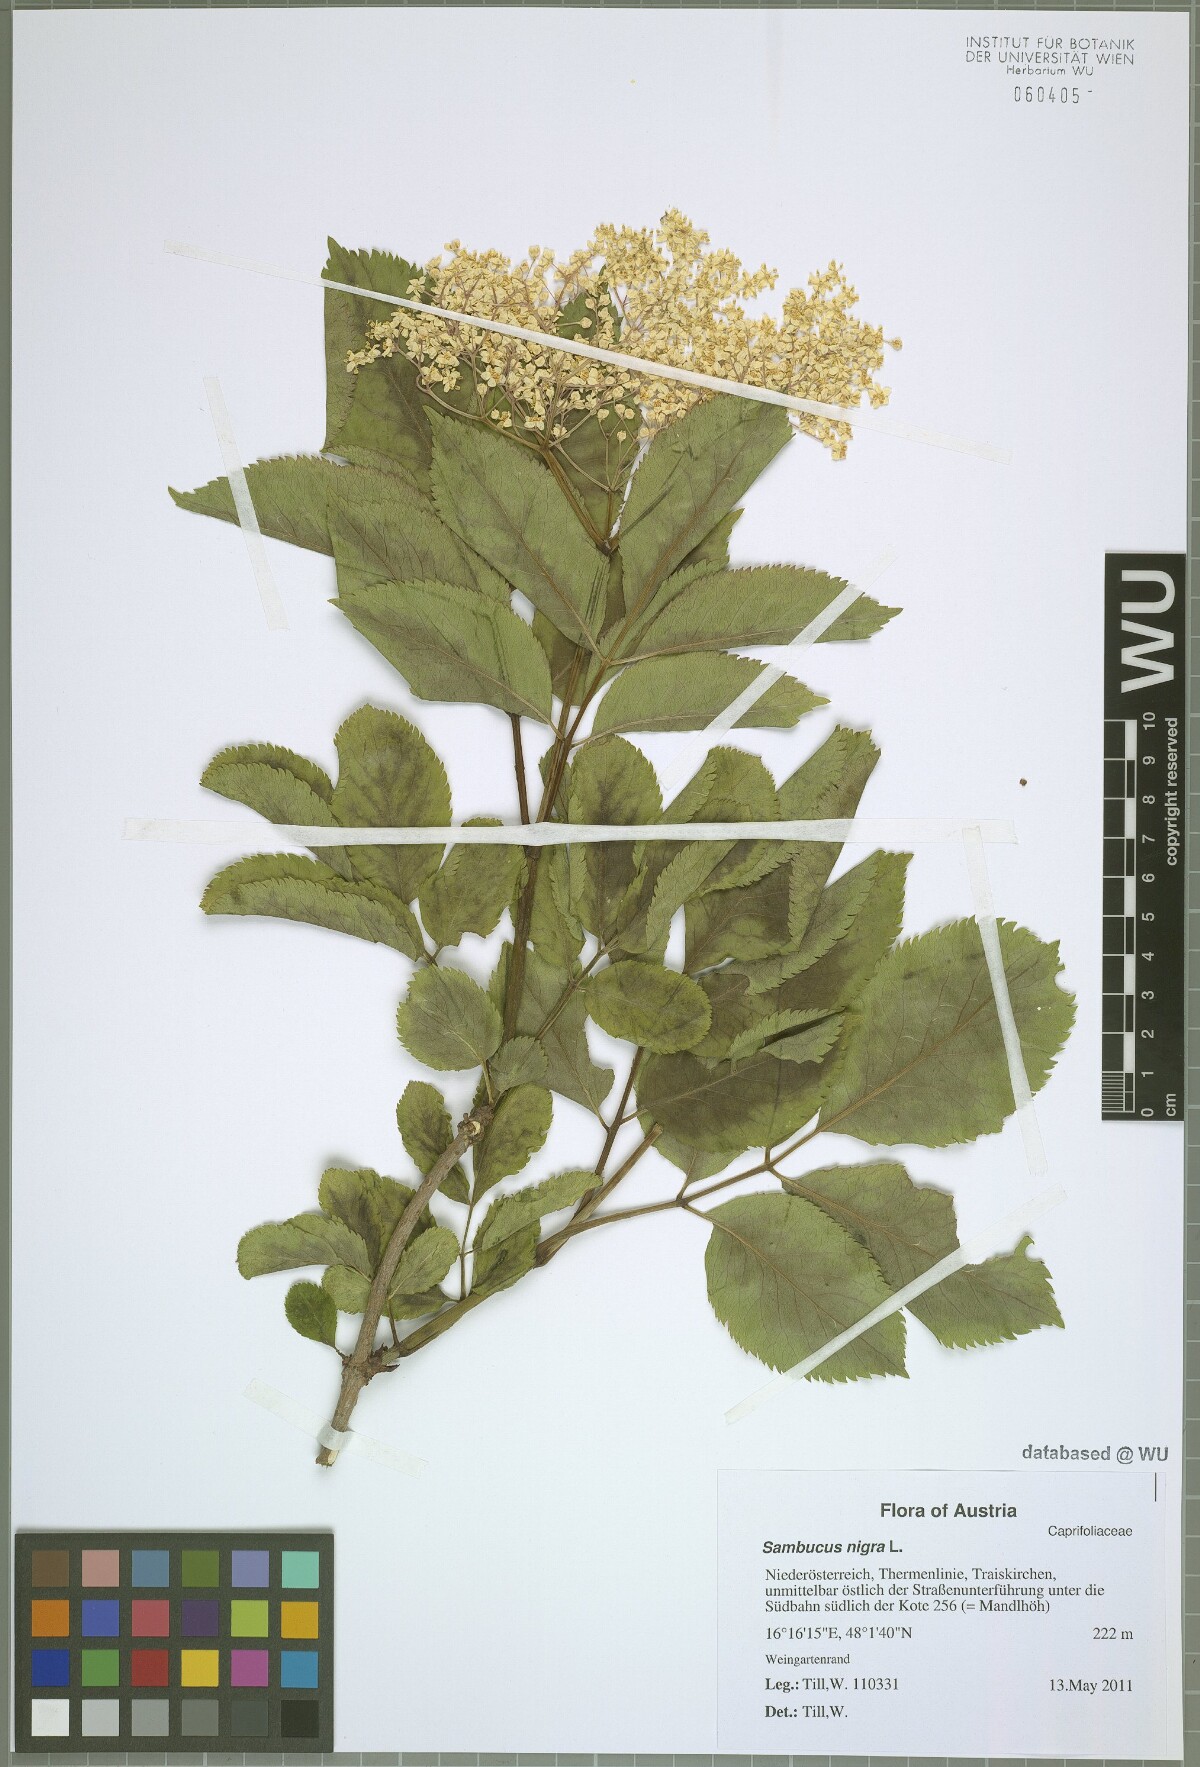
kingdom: Plantae
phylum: Tracheophyta
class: Magnoliopsida
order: Dipsacales
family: Viburnaceae
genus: Sambucus
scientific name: Sambucus nigra
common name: Elder
